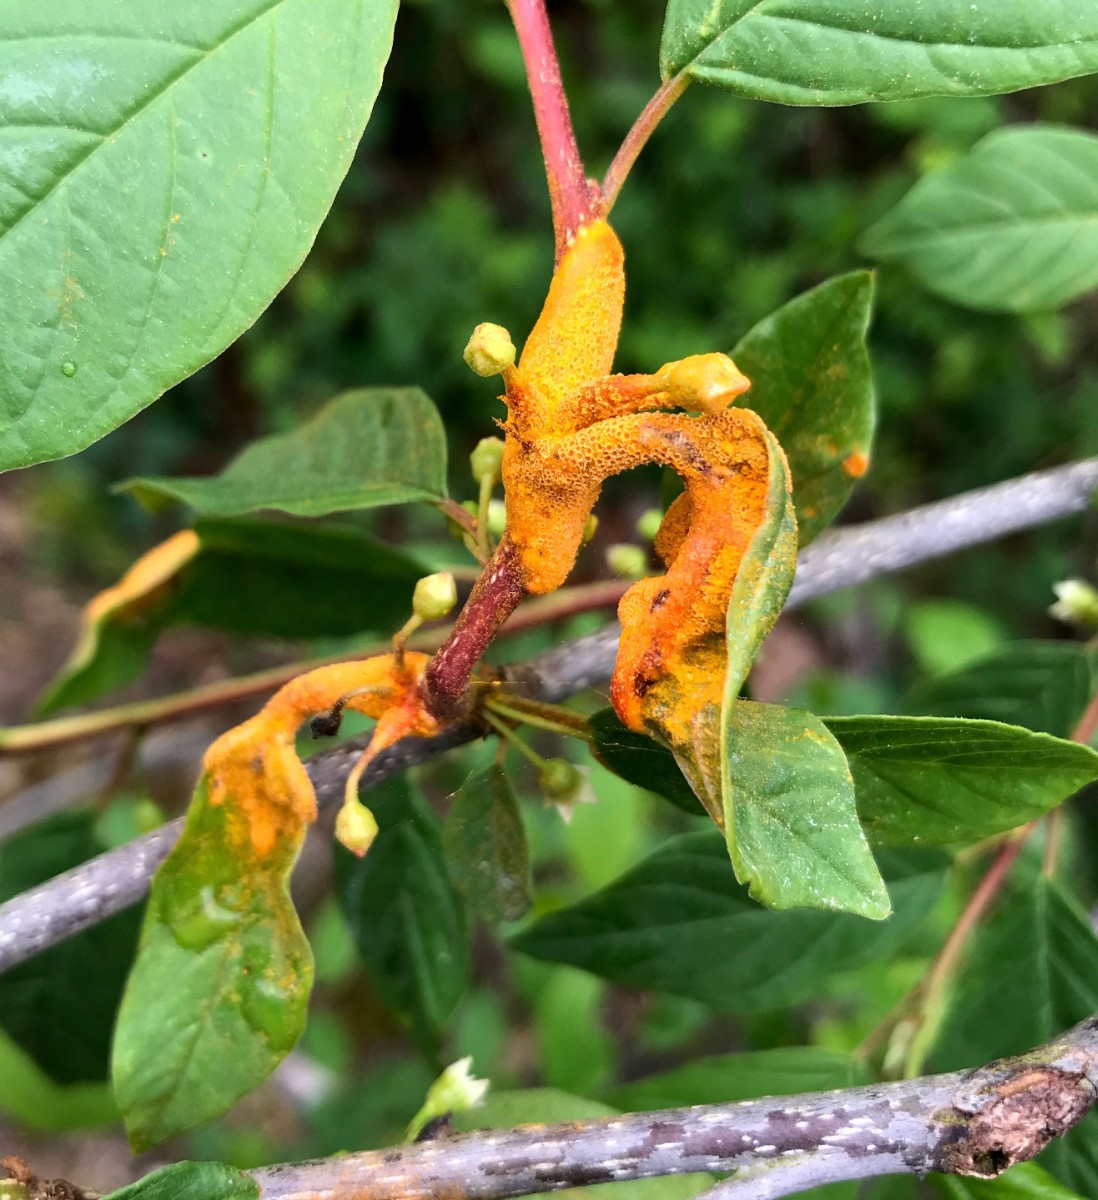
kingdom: Fungi
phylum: Basidiomycota
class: Pucciniomycetes
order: Pucciniales
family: Pucciniaceae
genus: Puccinia
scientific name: Puccinia coronata
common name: Crown rust
